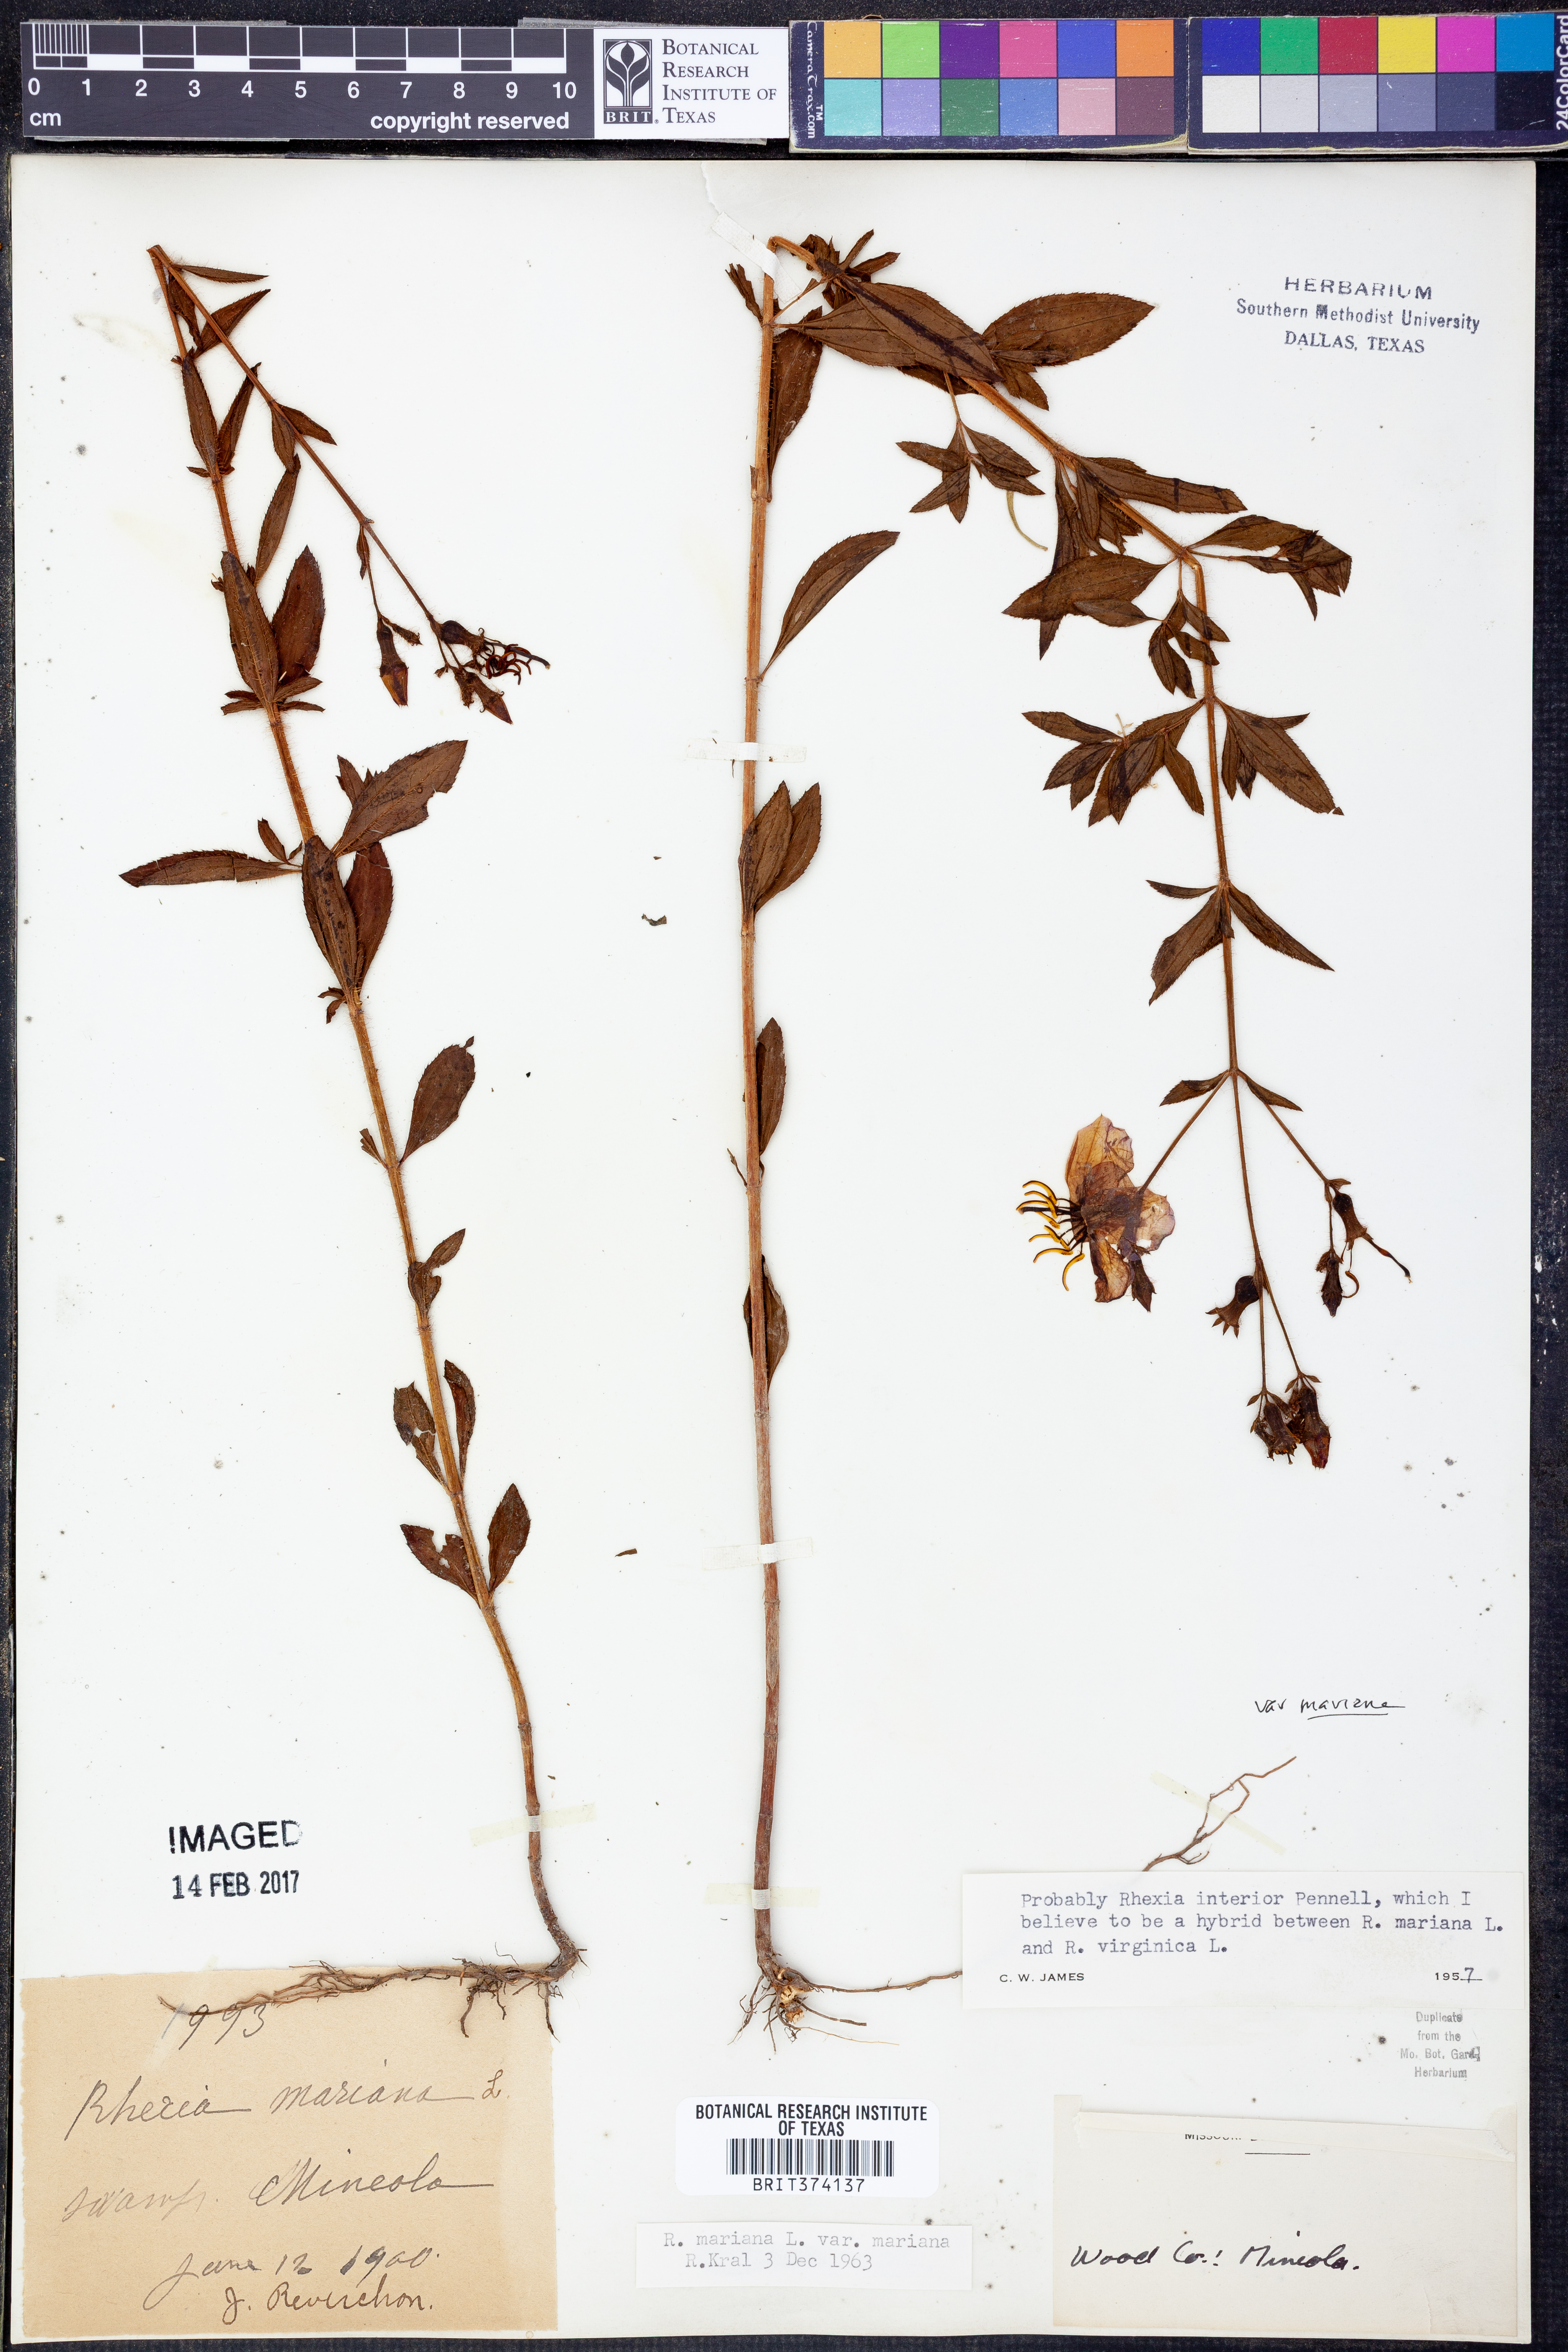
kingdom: Plantae
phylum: Tracheophyta
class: Magnoliopsida
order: Myrtales
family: Melastomataceae
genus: Rhexia
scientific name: Rhexia mariana
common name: Dull meadow-pitcher
